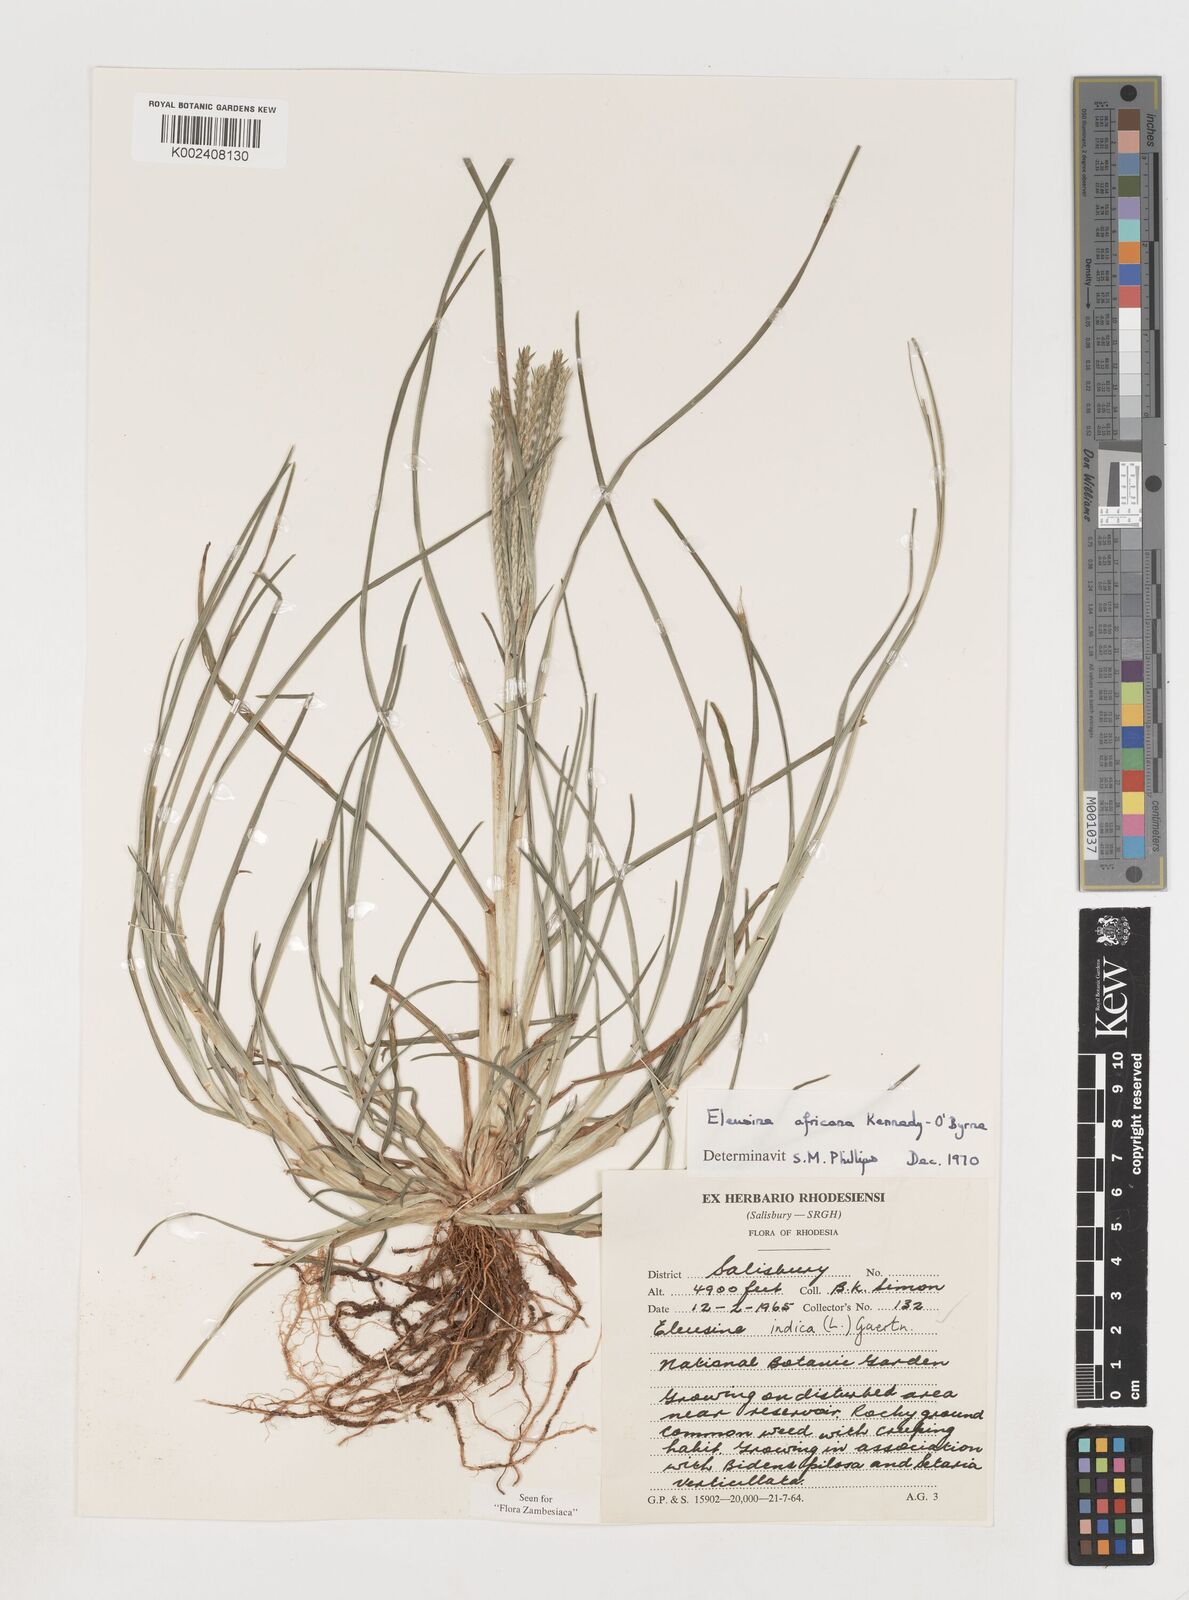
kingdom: Plantae
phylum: Tracheophyta
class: Liliopsida
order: Poales
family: Poaceae
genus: Eleusine
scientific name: Eleusine africana
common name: Wild african finger millet
